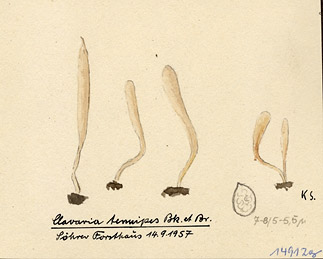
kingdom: Fungi
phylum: Basidiomycota
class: Agaricomycetes
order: Agaricales
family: Clavariaceae
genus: Clavaria
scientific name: Clavaria tenuipes
